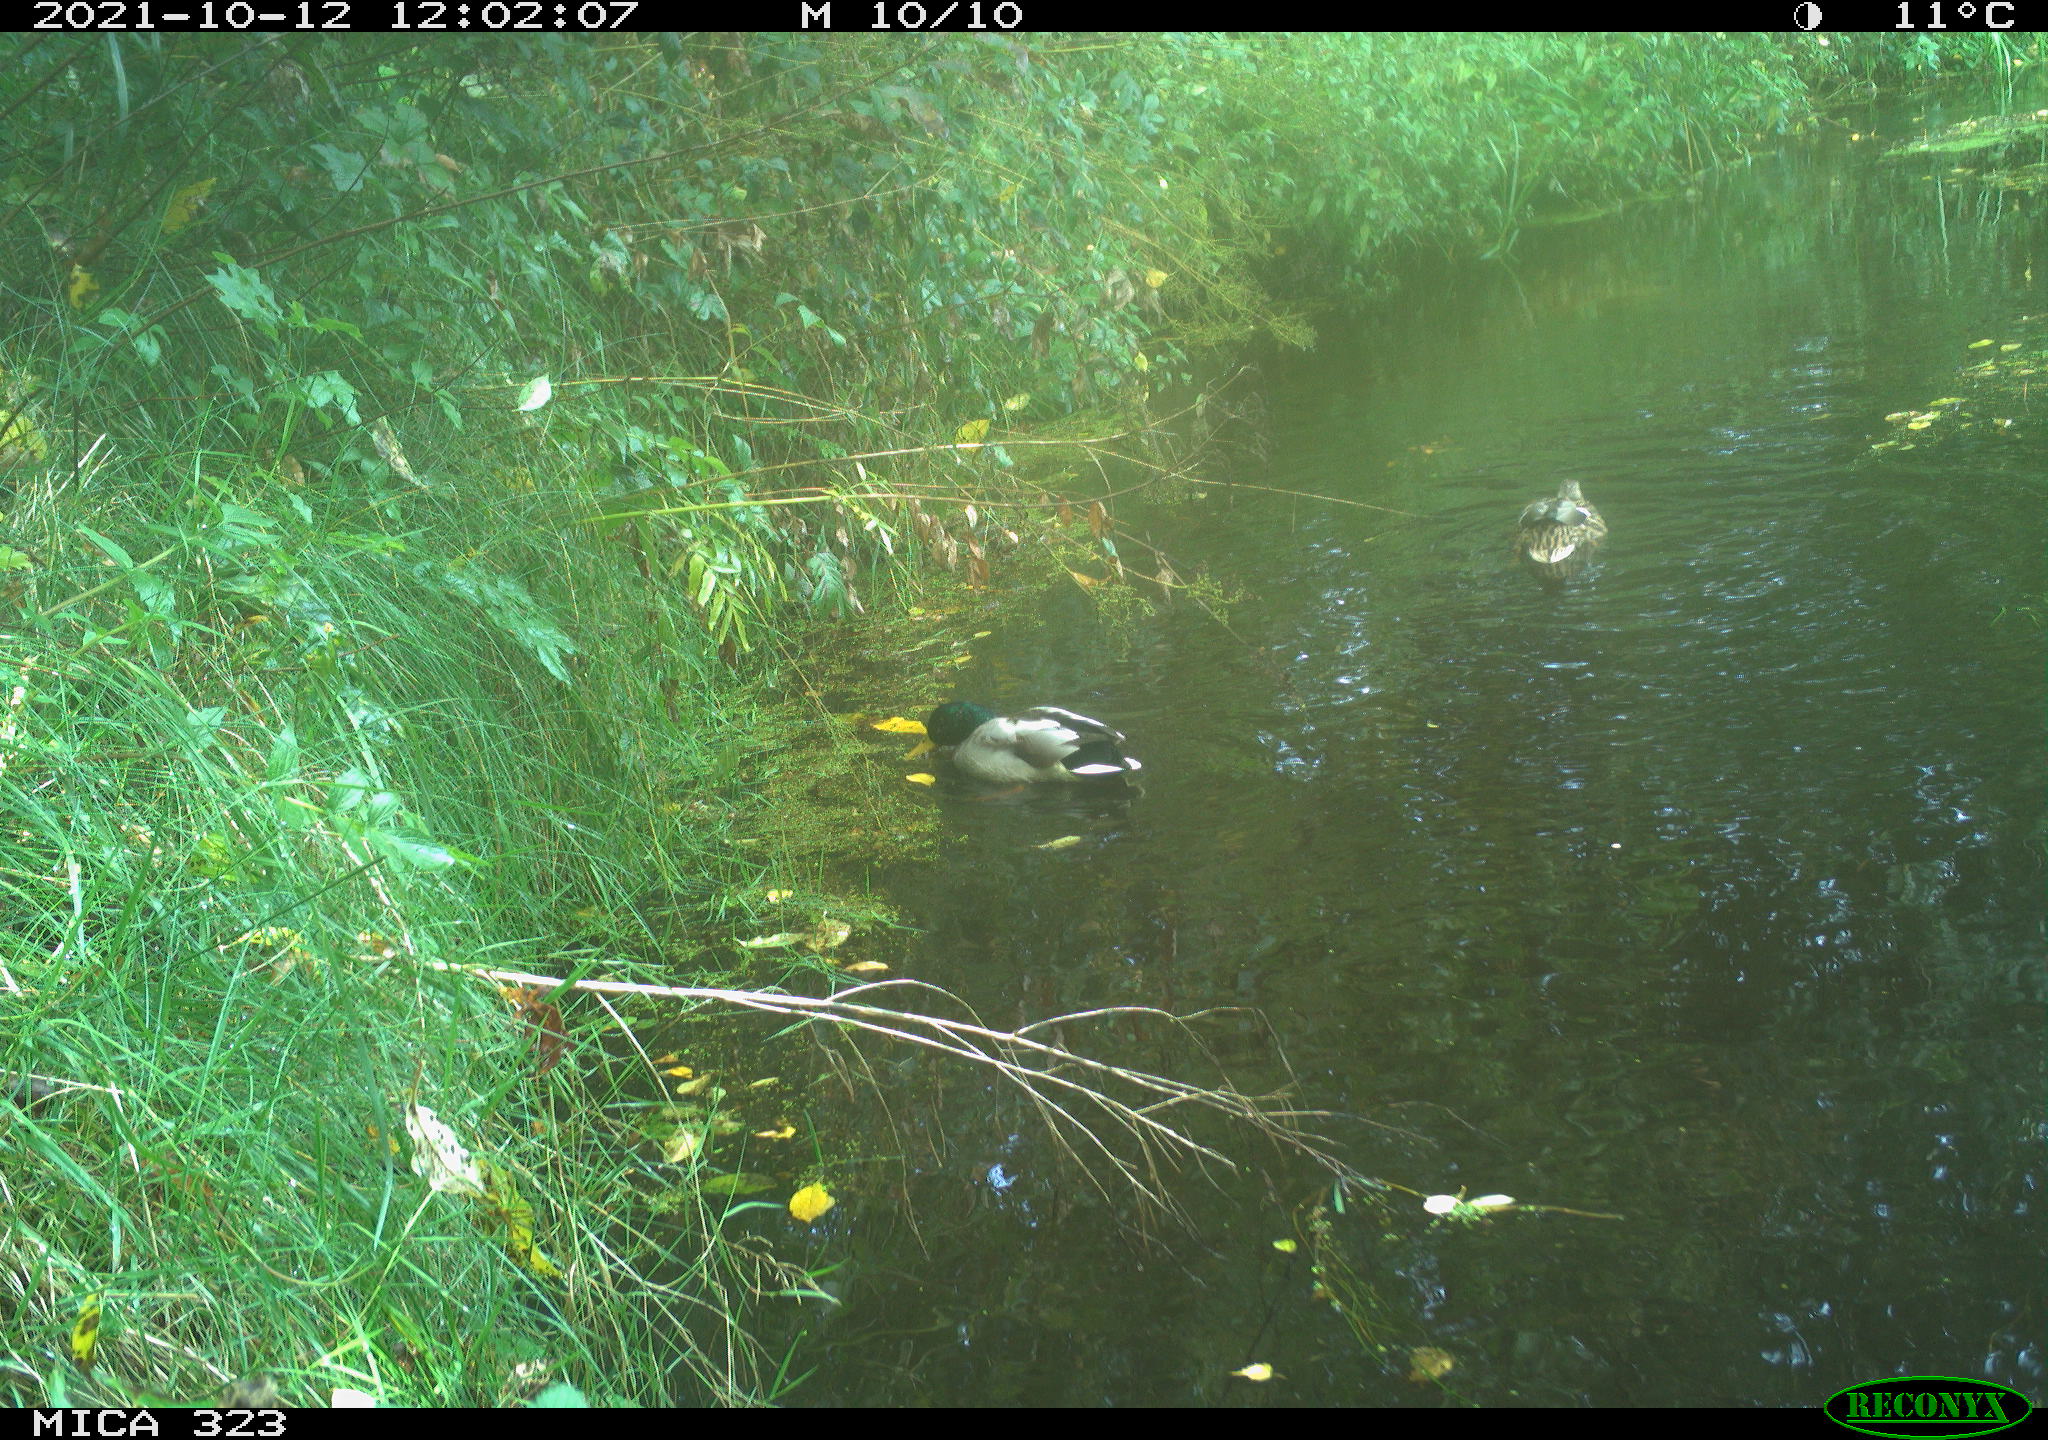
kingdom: Animalia
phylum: Chordata
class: Aves
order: Anseriformes
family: Anatidae
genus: Anas
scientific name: Anas platyrhynchos
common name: Mallard
